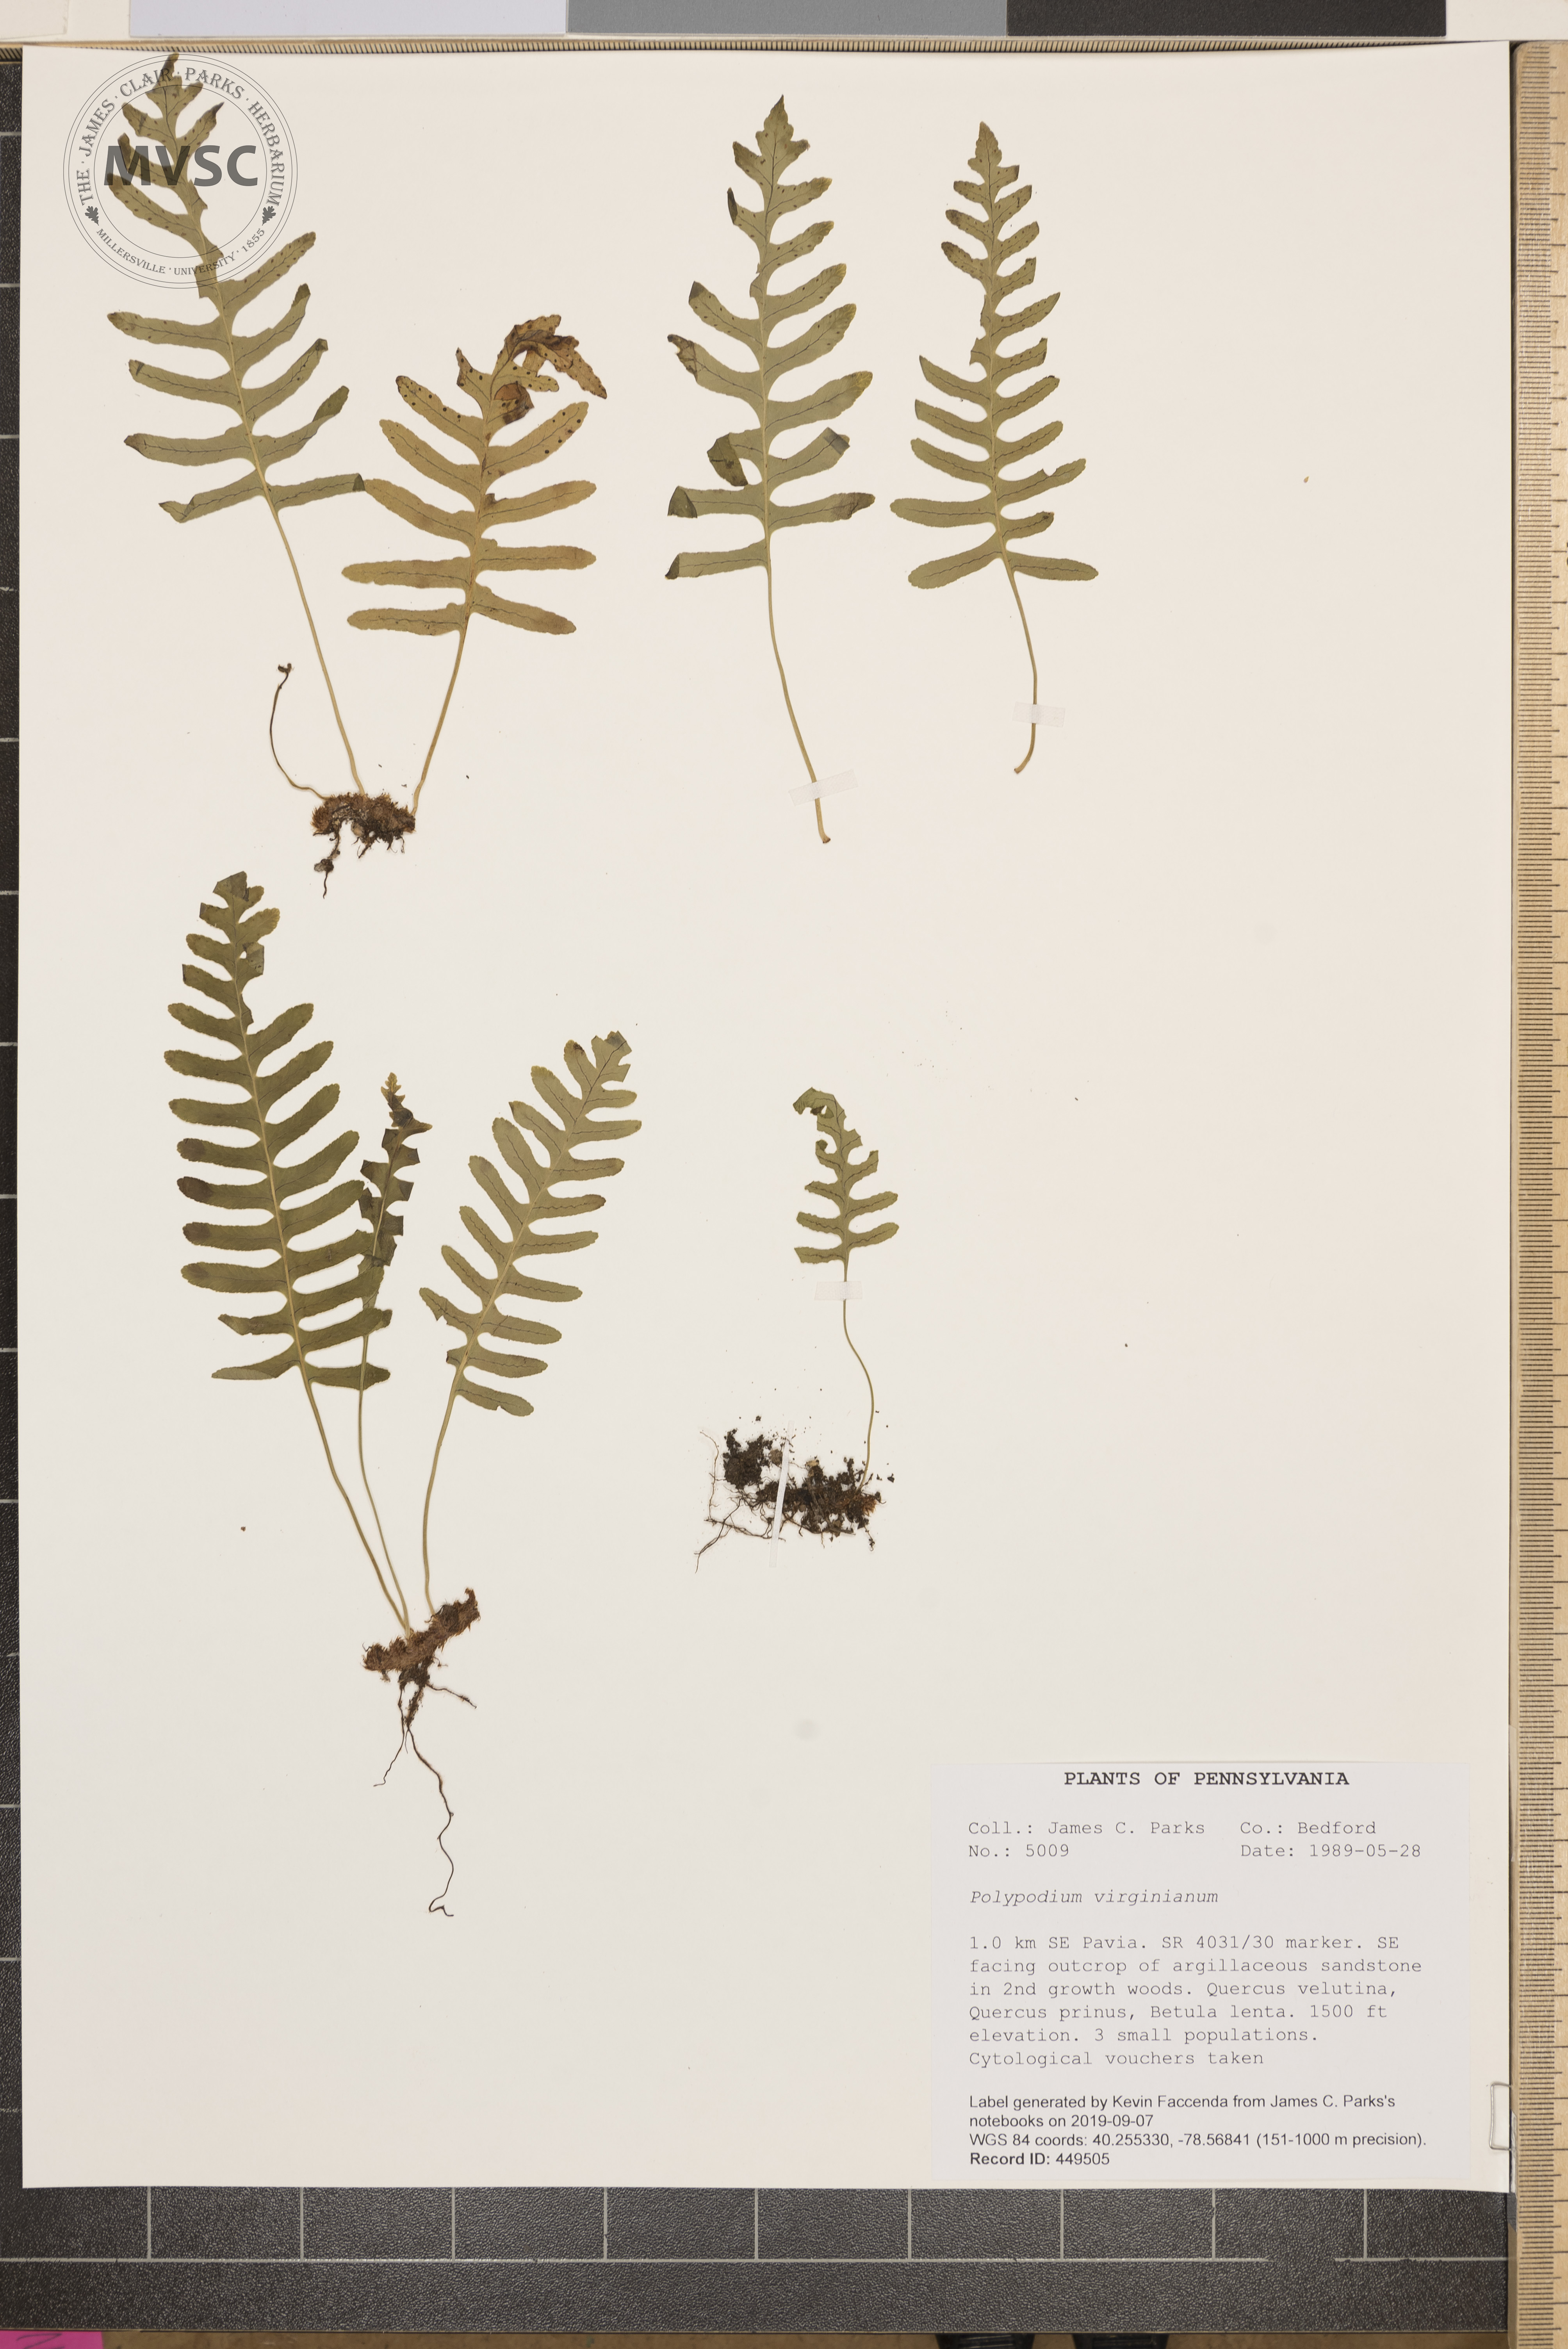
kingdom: Plantae
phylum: Tracheophyta
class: Polypodiopsida
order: Polypodiales
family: Polypodiaceae
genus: Polypodium
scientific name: Polypodium virginianum
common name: American wall fern
